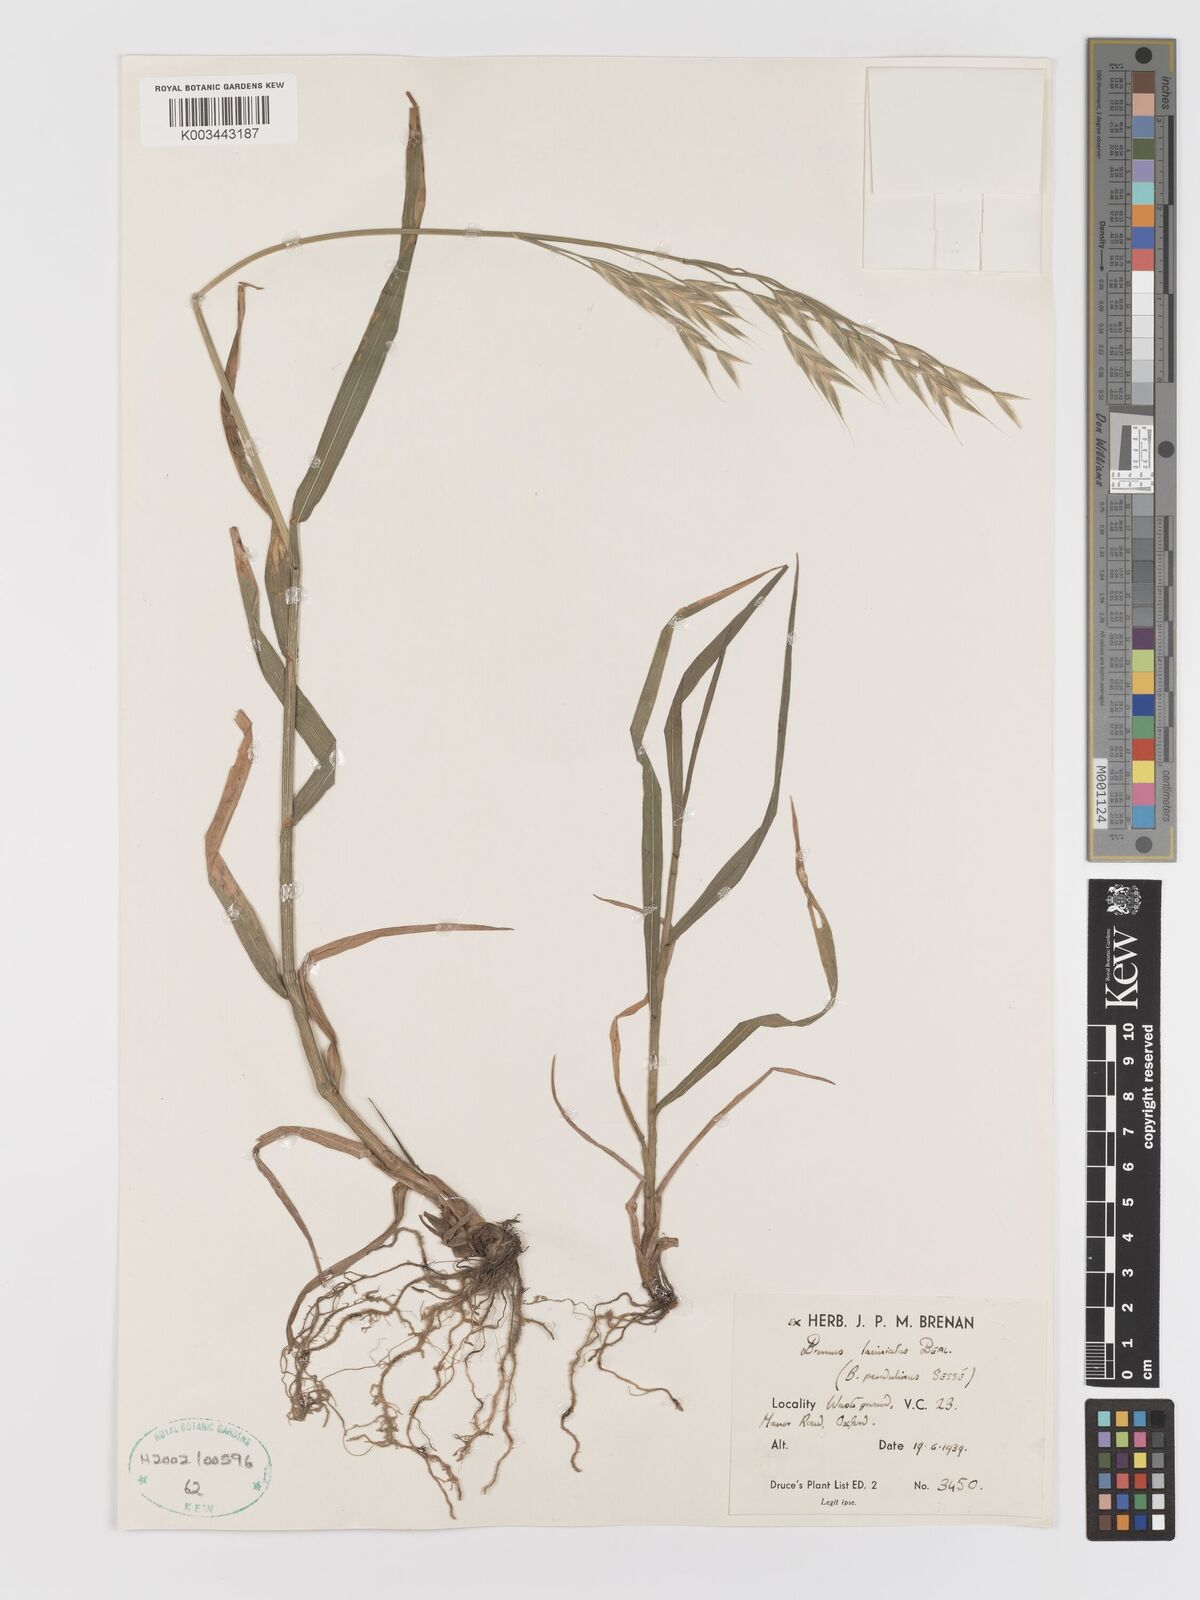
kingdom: Plantae
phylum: Tracheophyta
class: Liliopsida
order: Poales
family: Poaceae
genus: Bromus
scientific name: Bromus polyanthus
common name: Great basin brome
